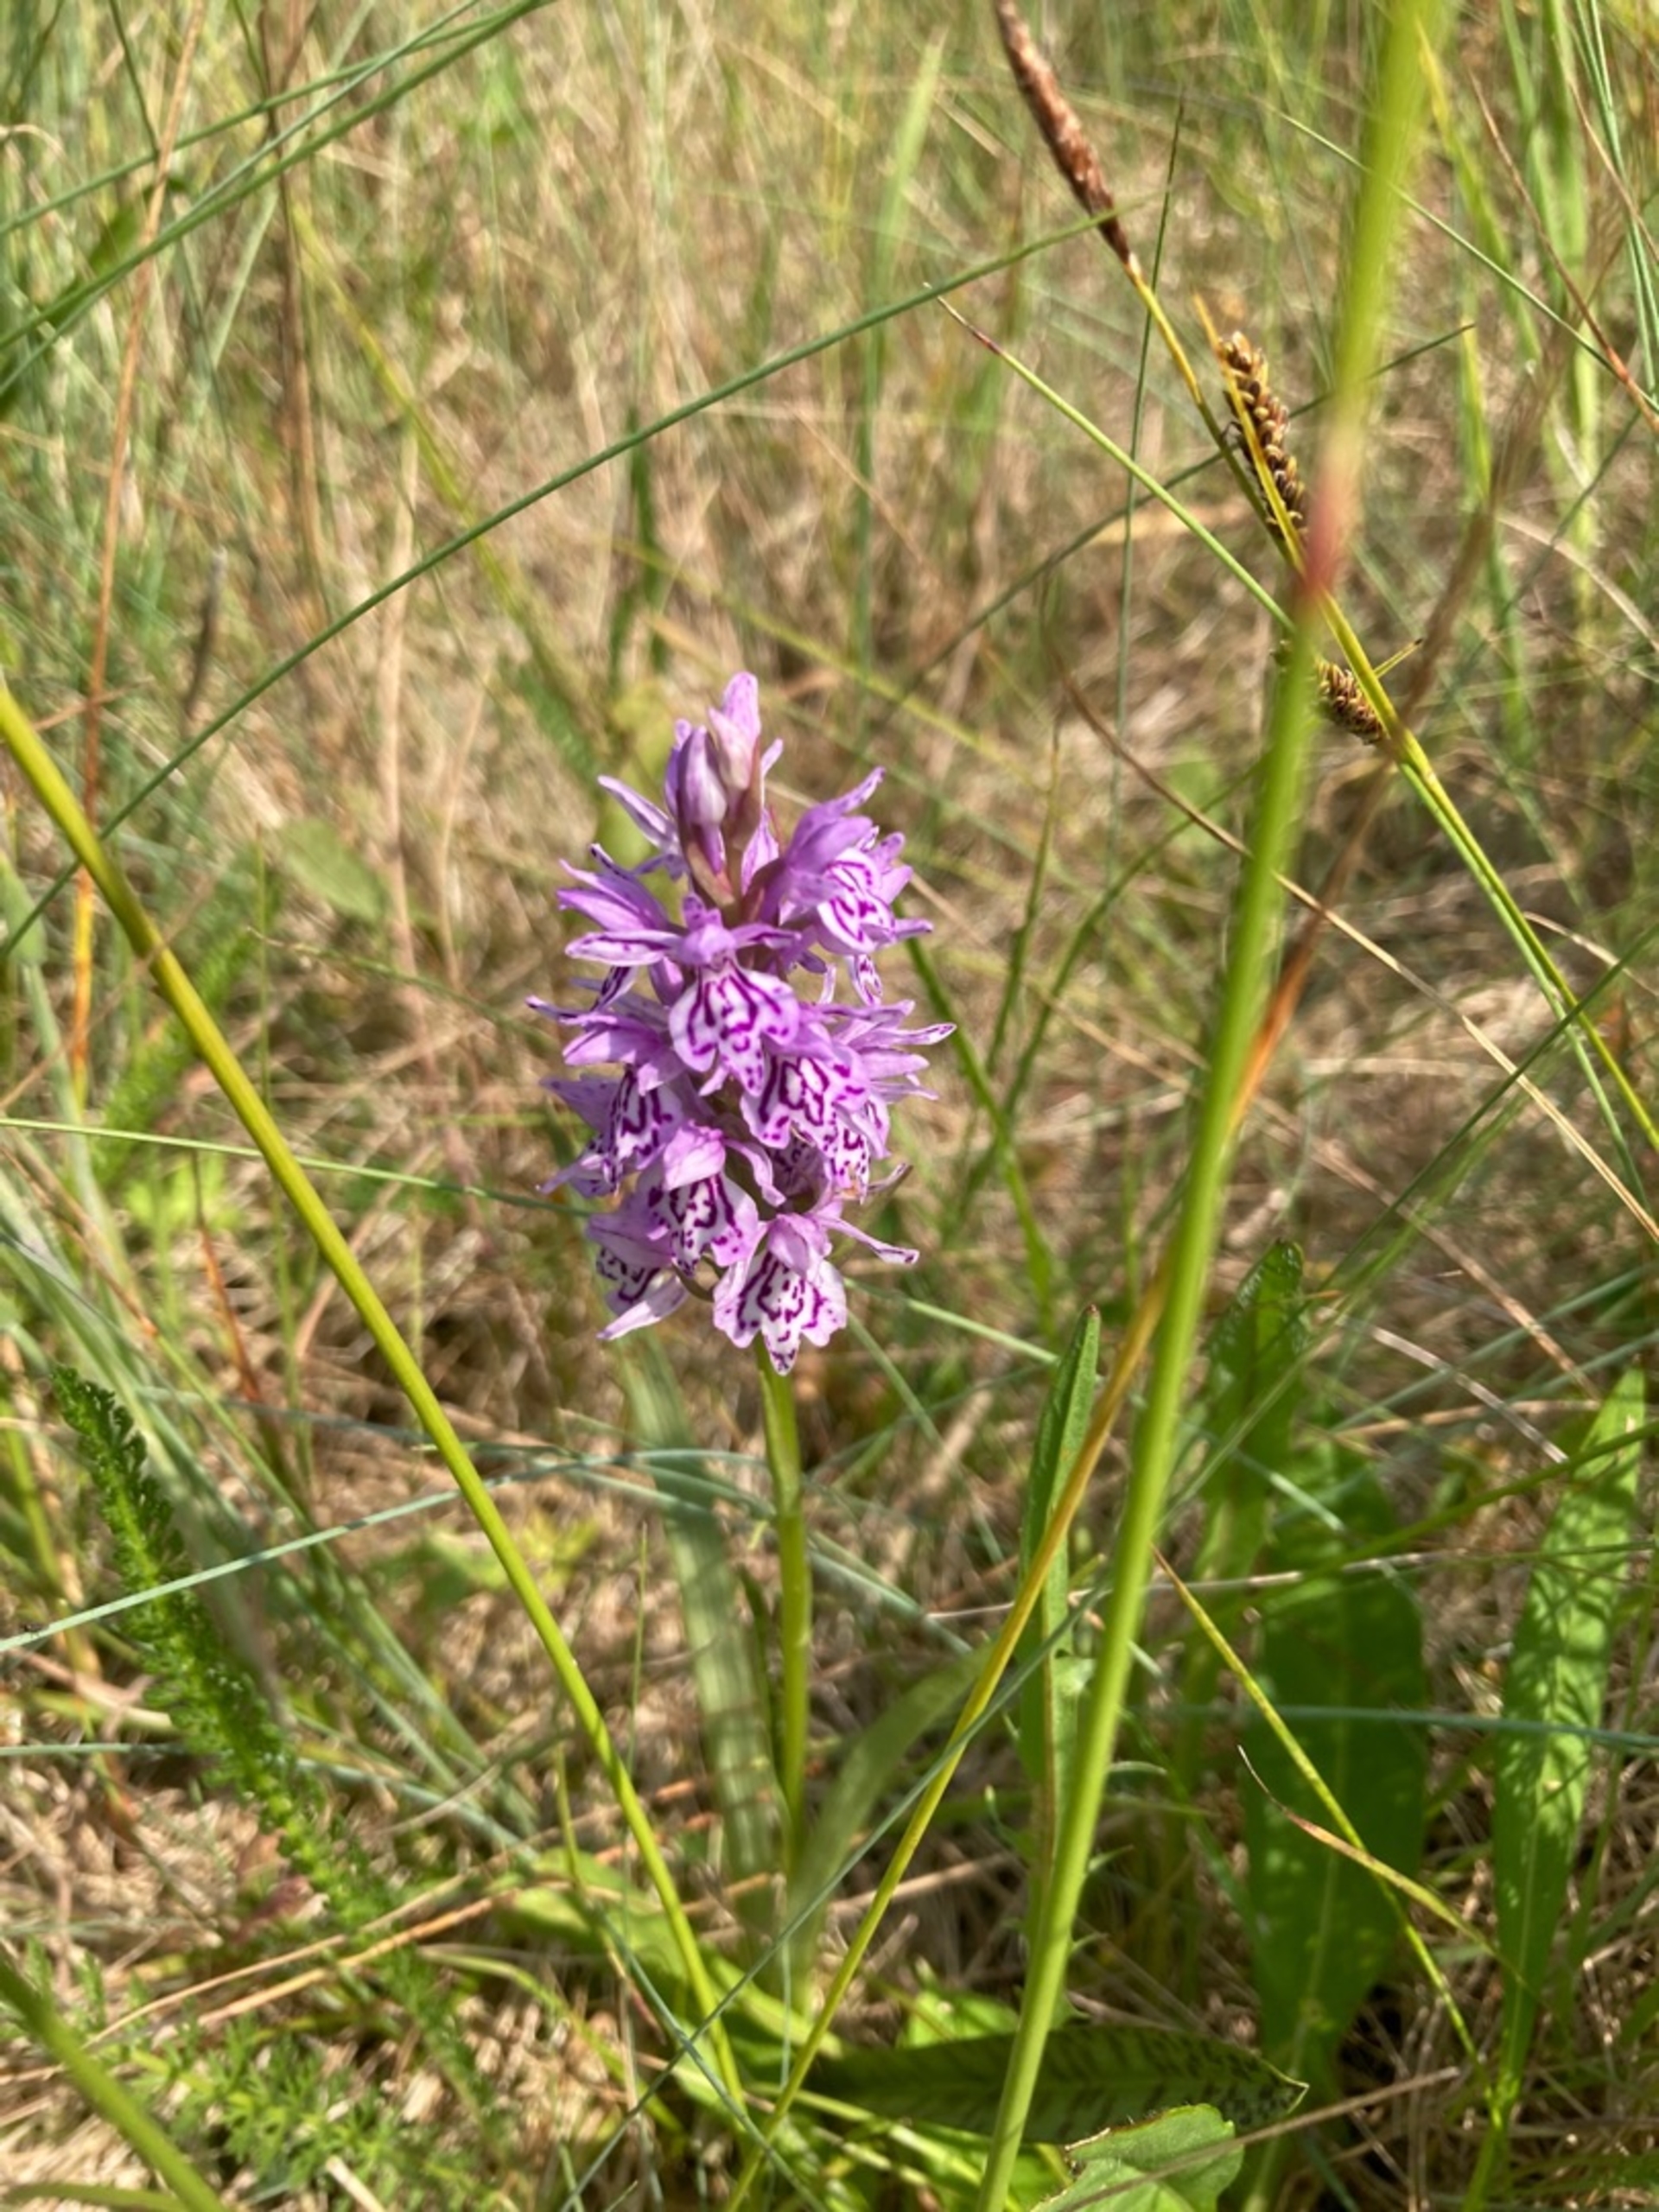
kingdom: Plantae
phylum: Tracheophyta
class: Liliopsida
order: Asparagales
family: Orchidaceae
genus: Dactylorhiza
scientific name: Dactylorhiza maculata
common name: Plettet gøgeurt
